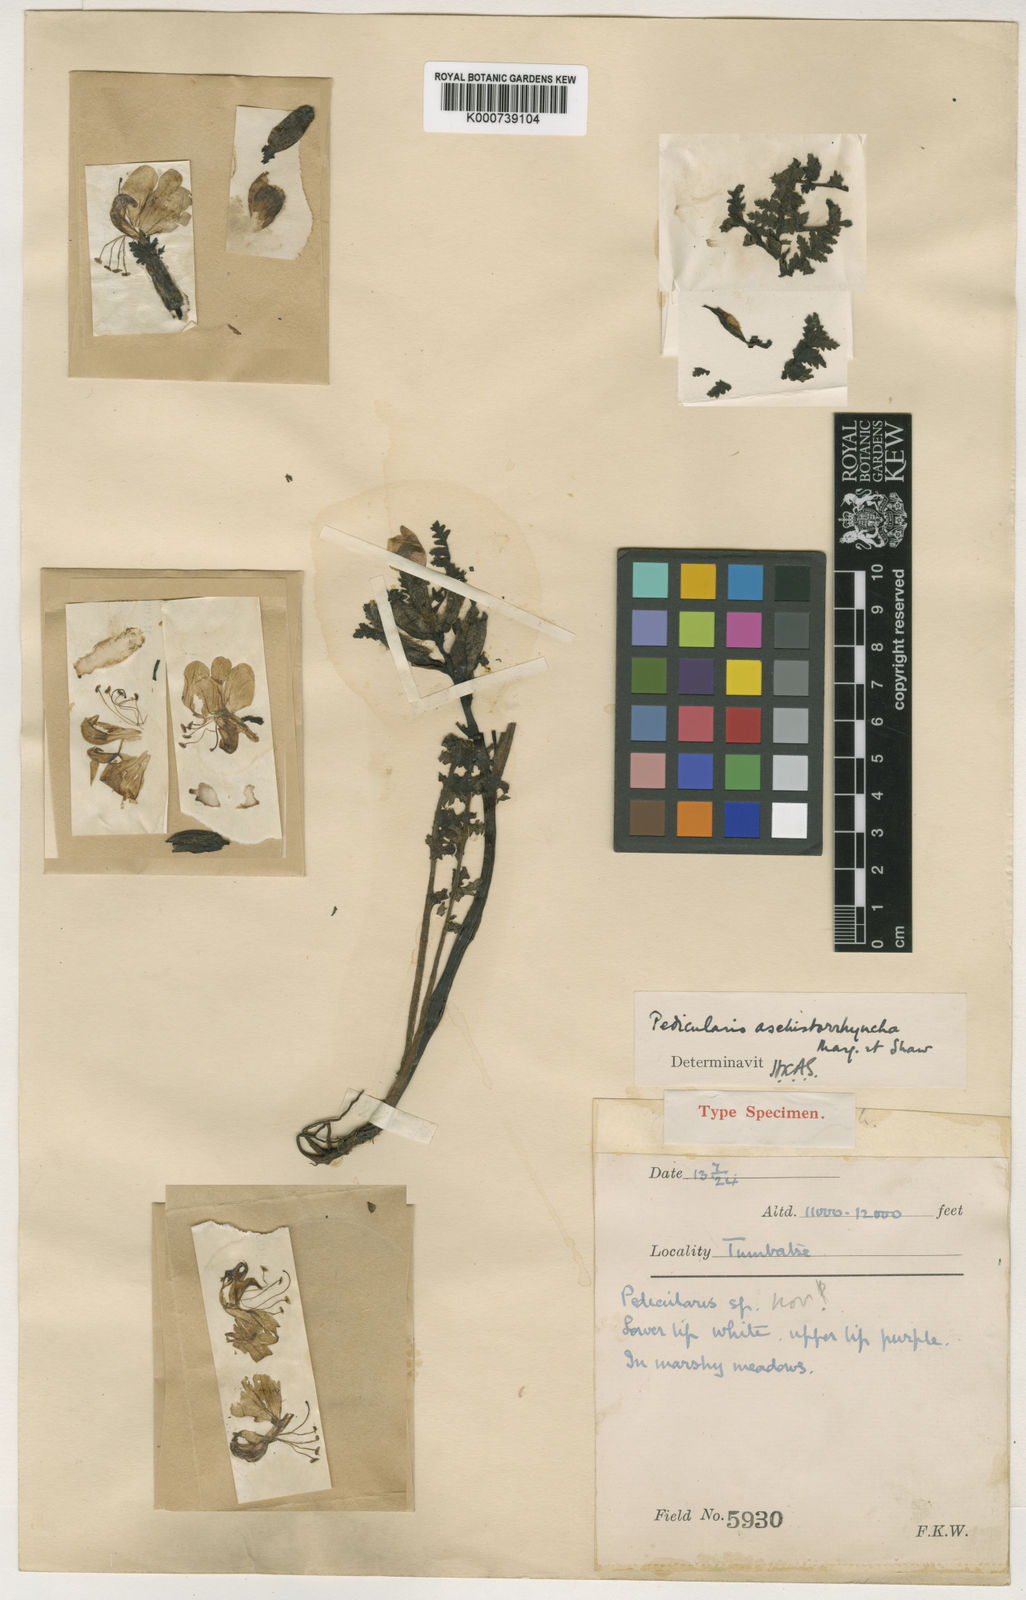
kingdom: Plantae
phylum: Tracheophyta
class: Magnoliopsida
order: Lamiales
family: Orobanchaceae
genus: Pedicularis
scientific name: Pedicularis aschistorrhyncha
